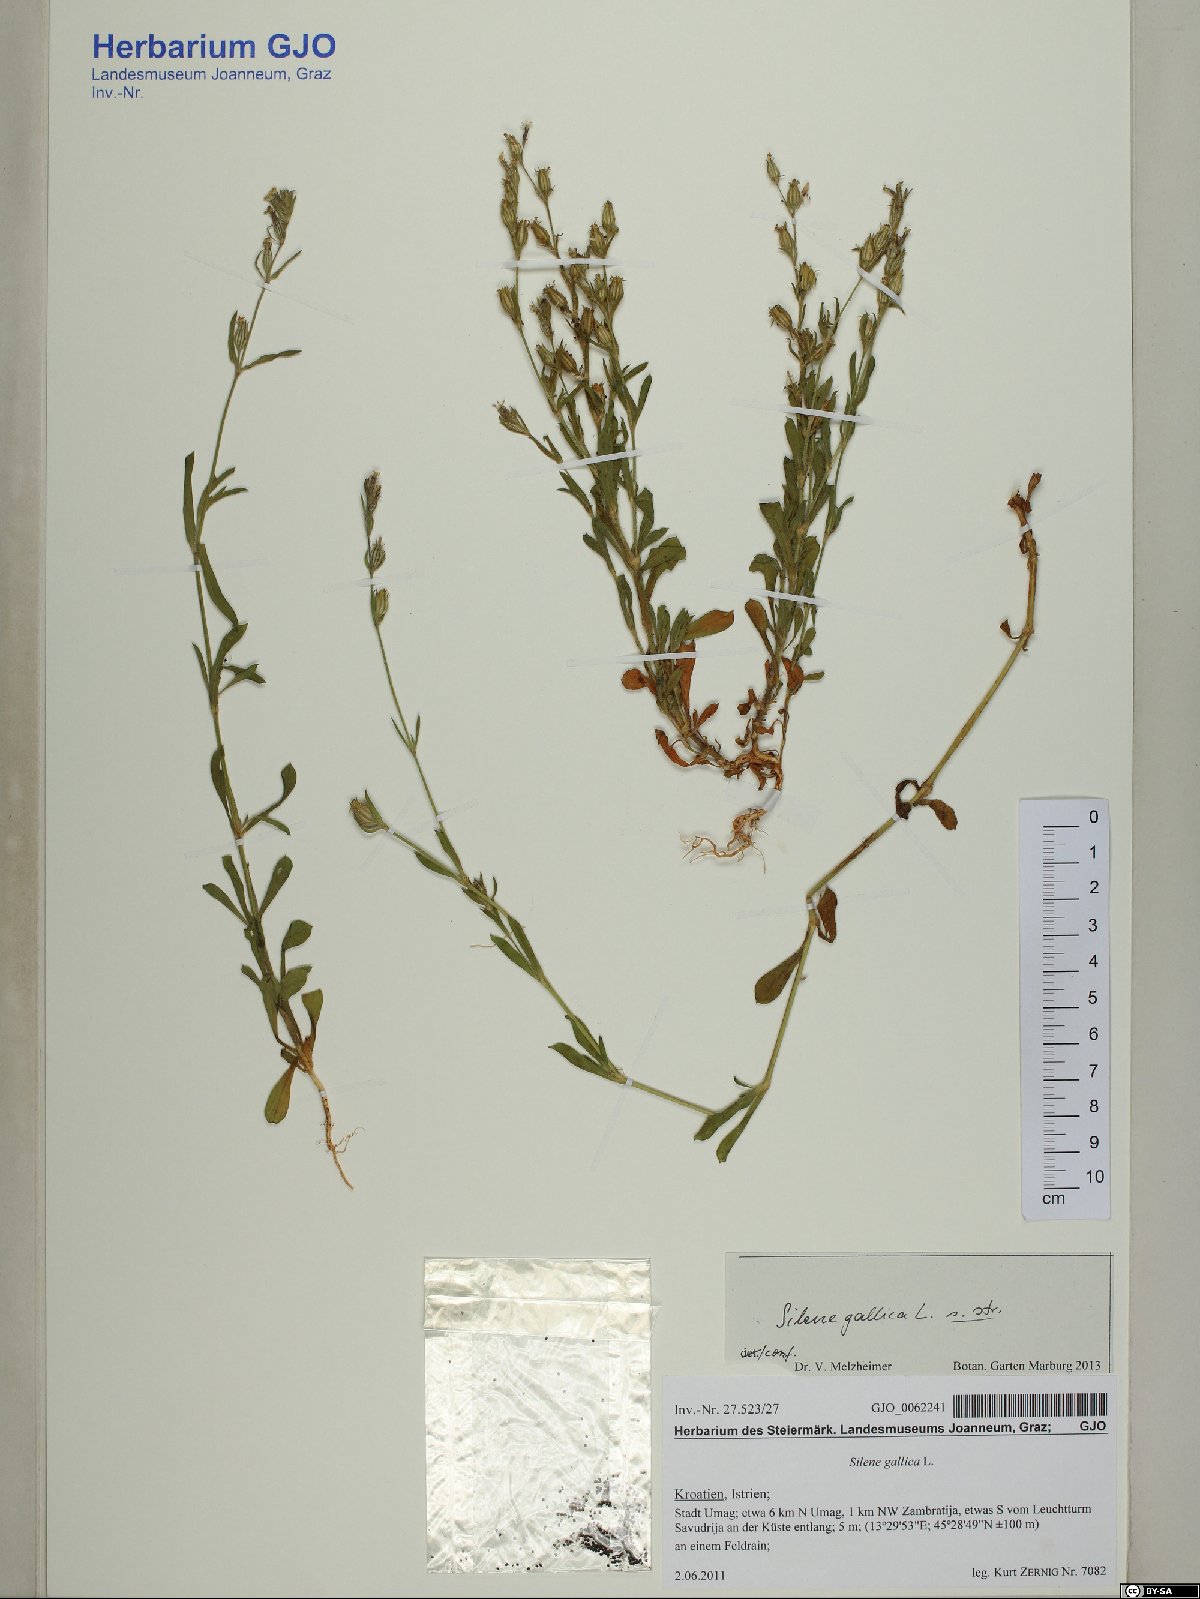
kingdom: Plantae
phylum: Tracheophyta
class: Magnoliopsida
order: Caryophyllales
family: Caryophyllaceae
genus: Silene
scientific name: Silene gallica
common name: Small-flowered catchfly
